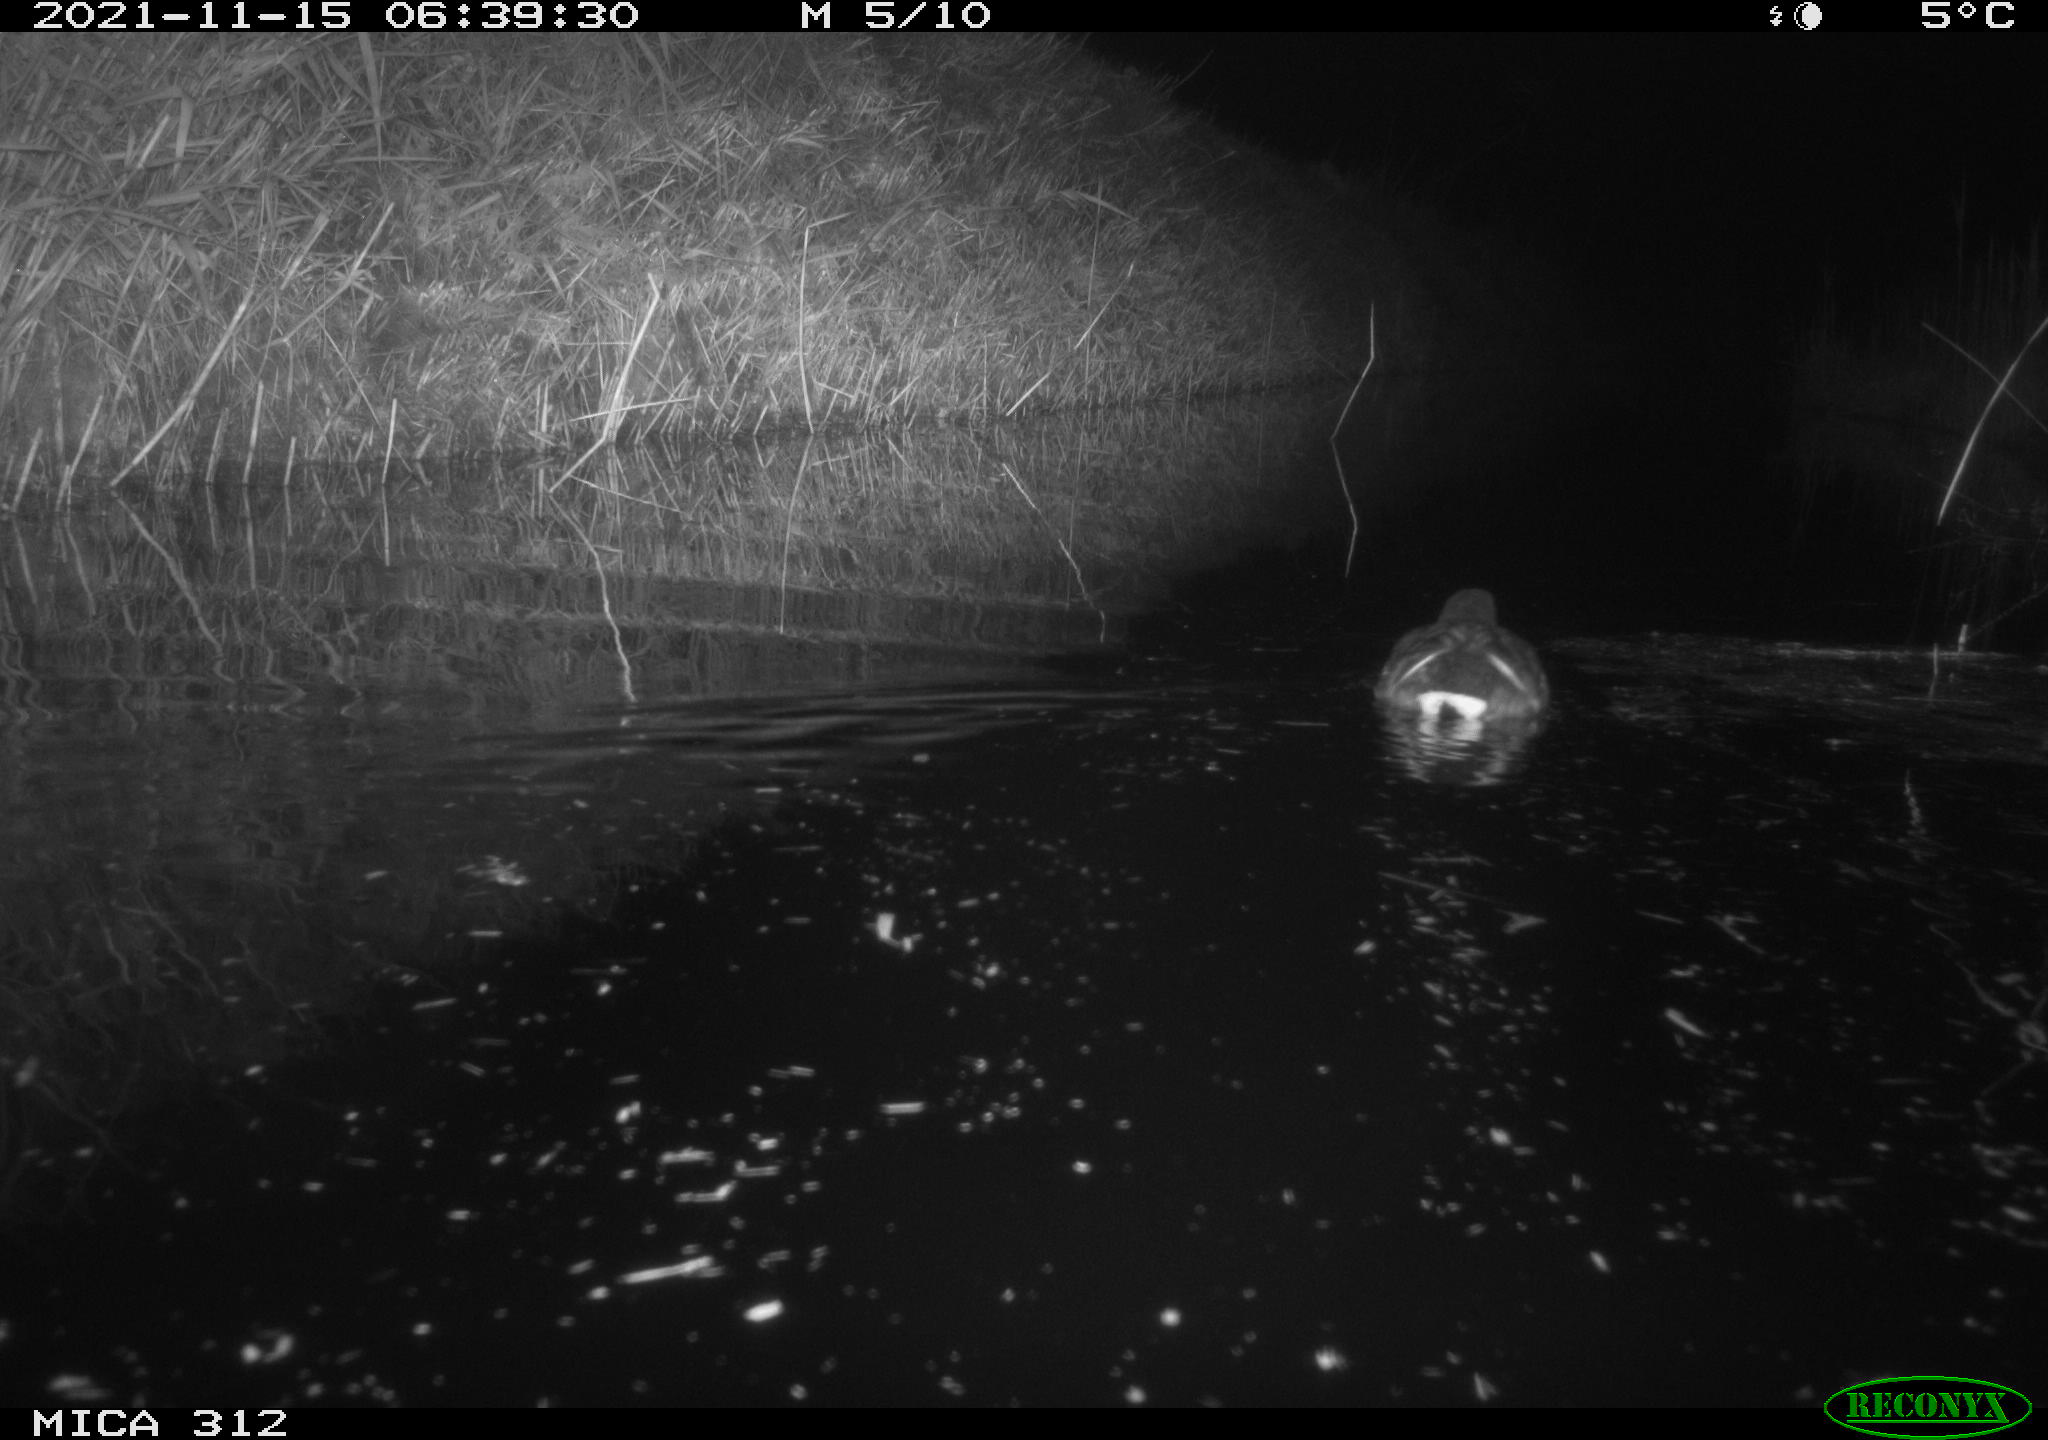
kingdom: Animalia
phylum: Chordata
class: Aves
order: Anseriformes
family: Anatidae
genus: Anas
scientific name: Anas
